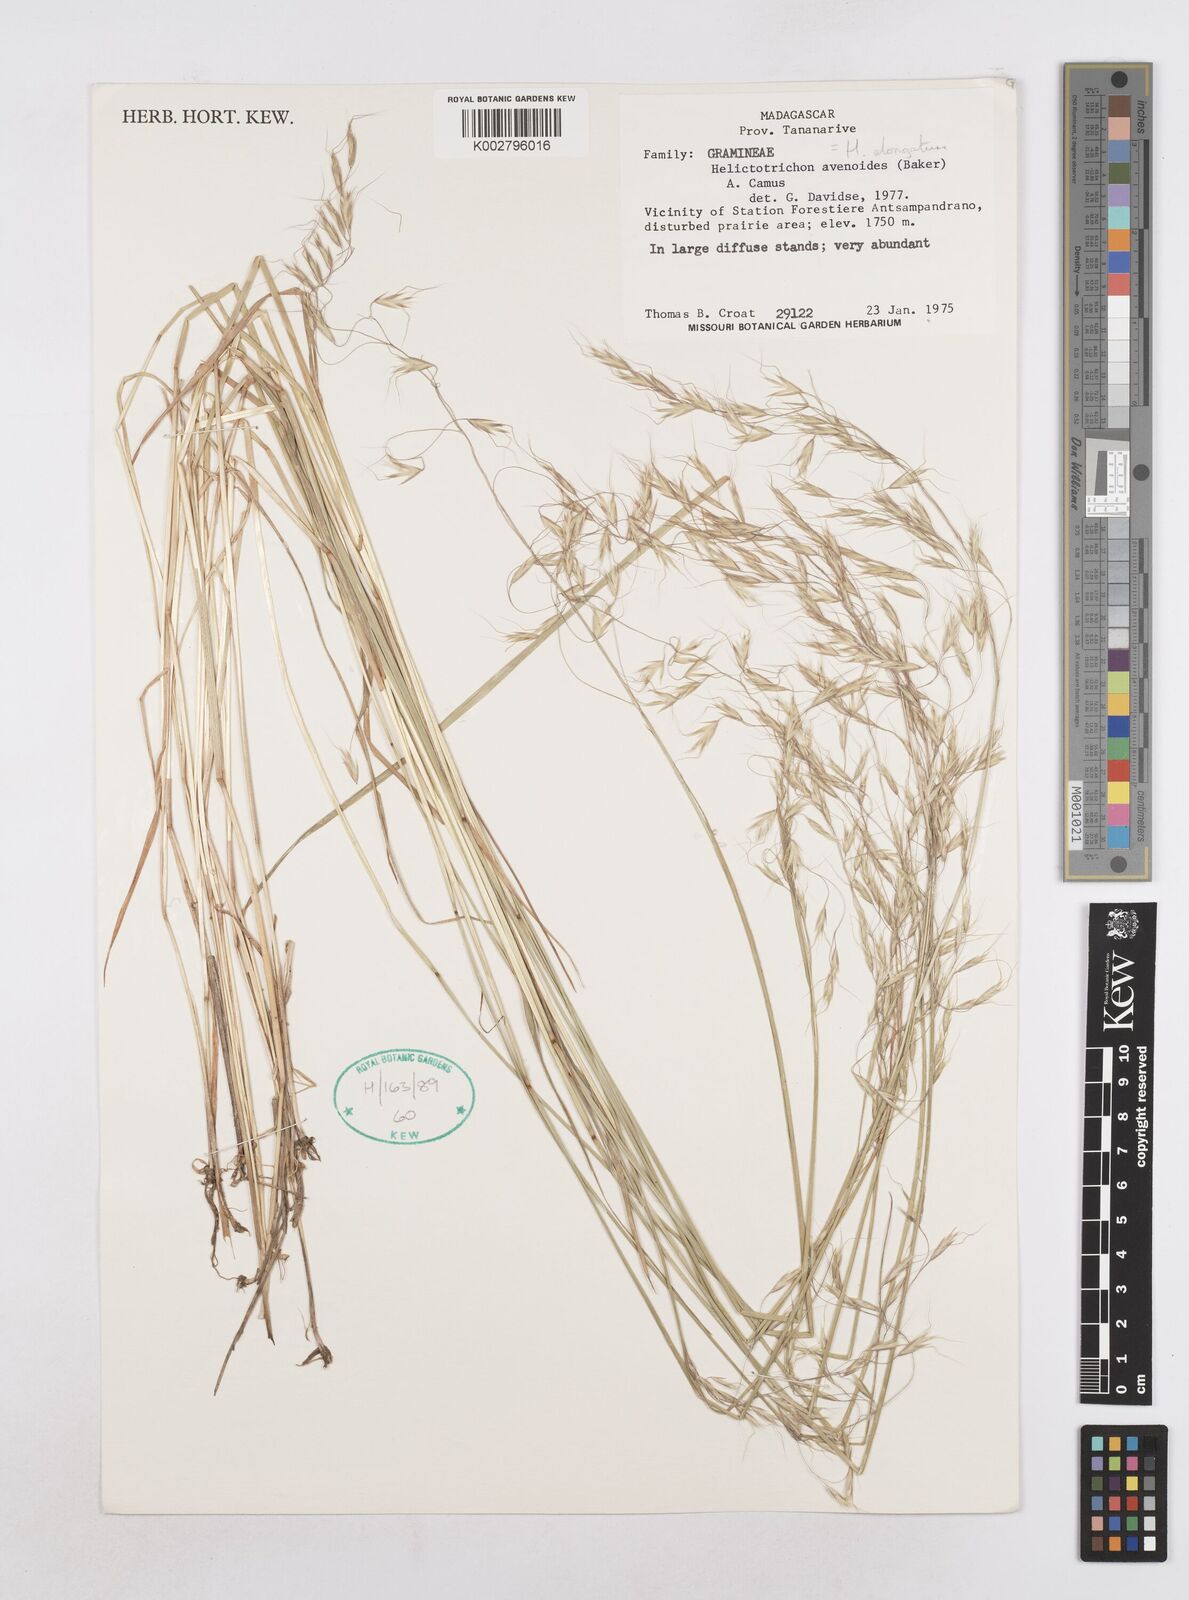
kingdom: Plantae
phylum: Tracheophyta
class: Liliopsida
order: Poales
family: Poaceae
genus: Trisetopsis
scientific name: Trisetopsis elongata
